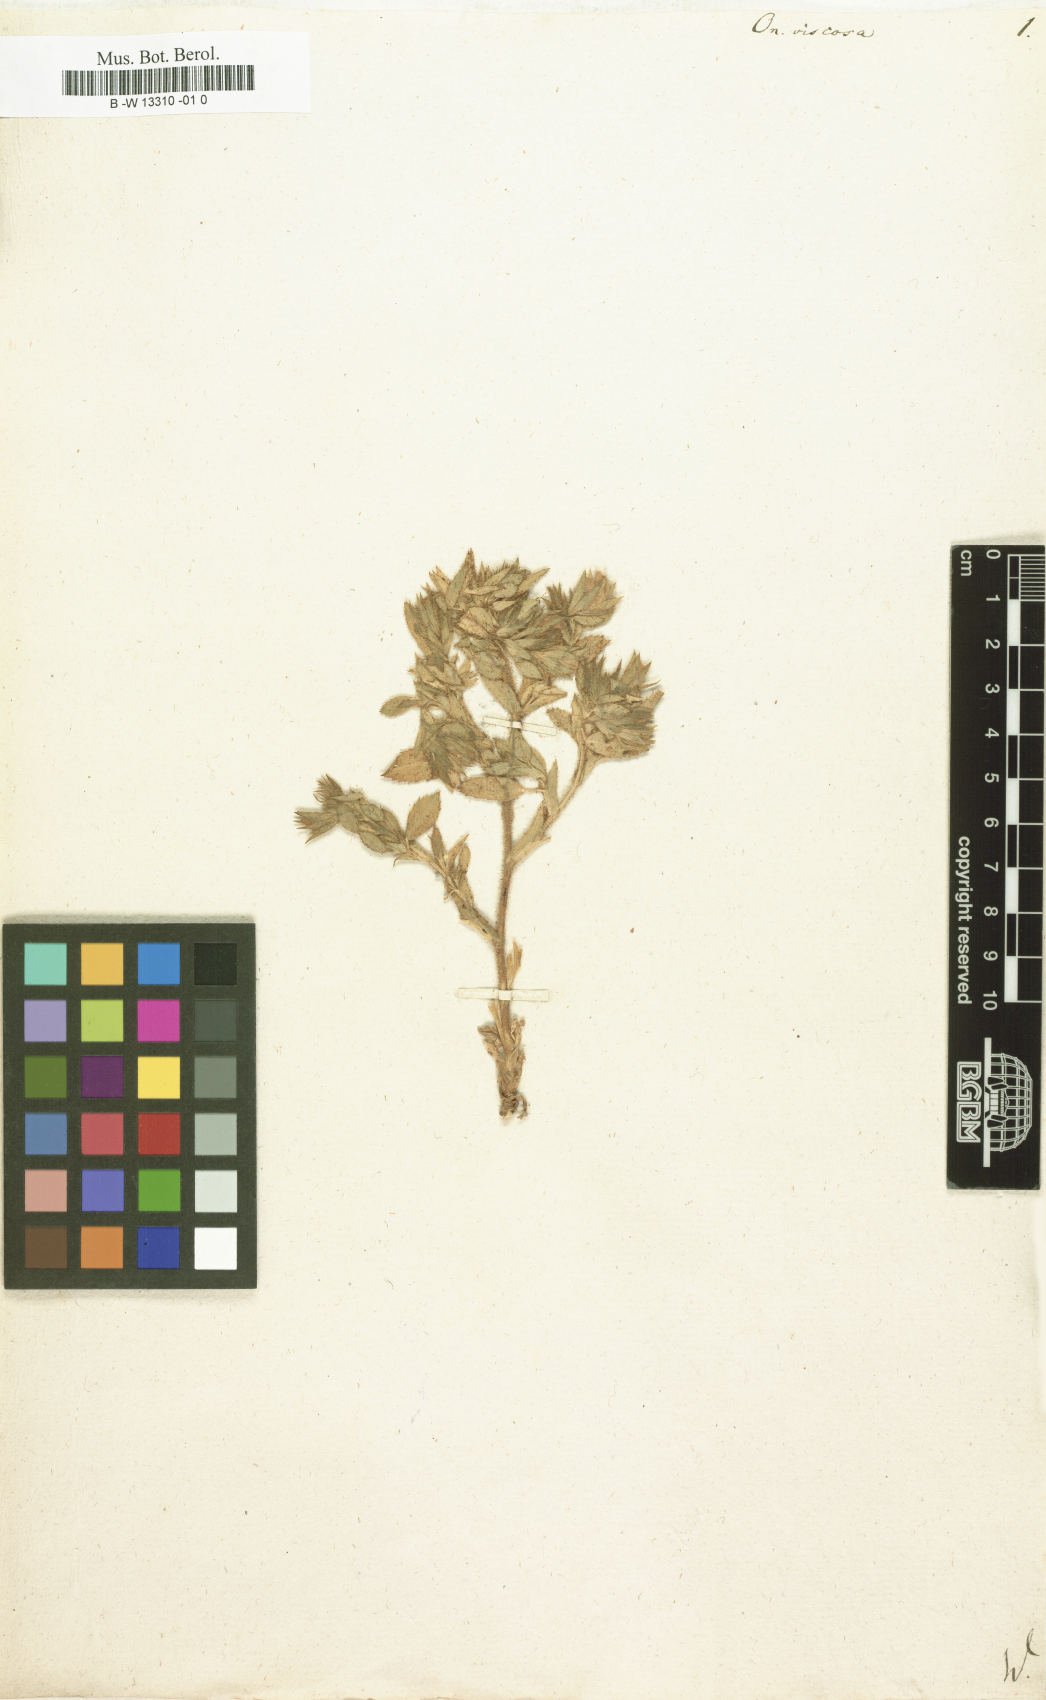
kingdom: Plantae
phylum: Tracheophyta
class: Magnoliopsida
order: Fabales
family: Fabaceae
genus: Ononis
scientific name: Ononis viscosa
